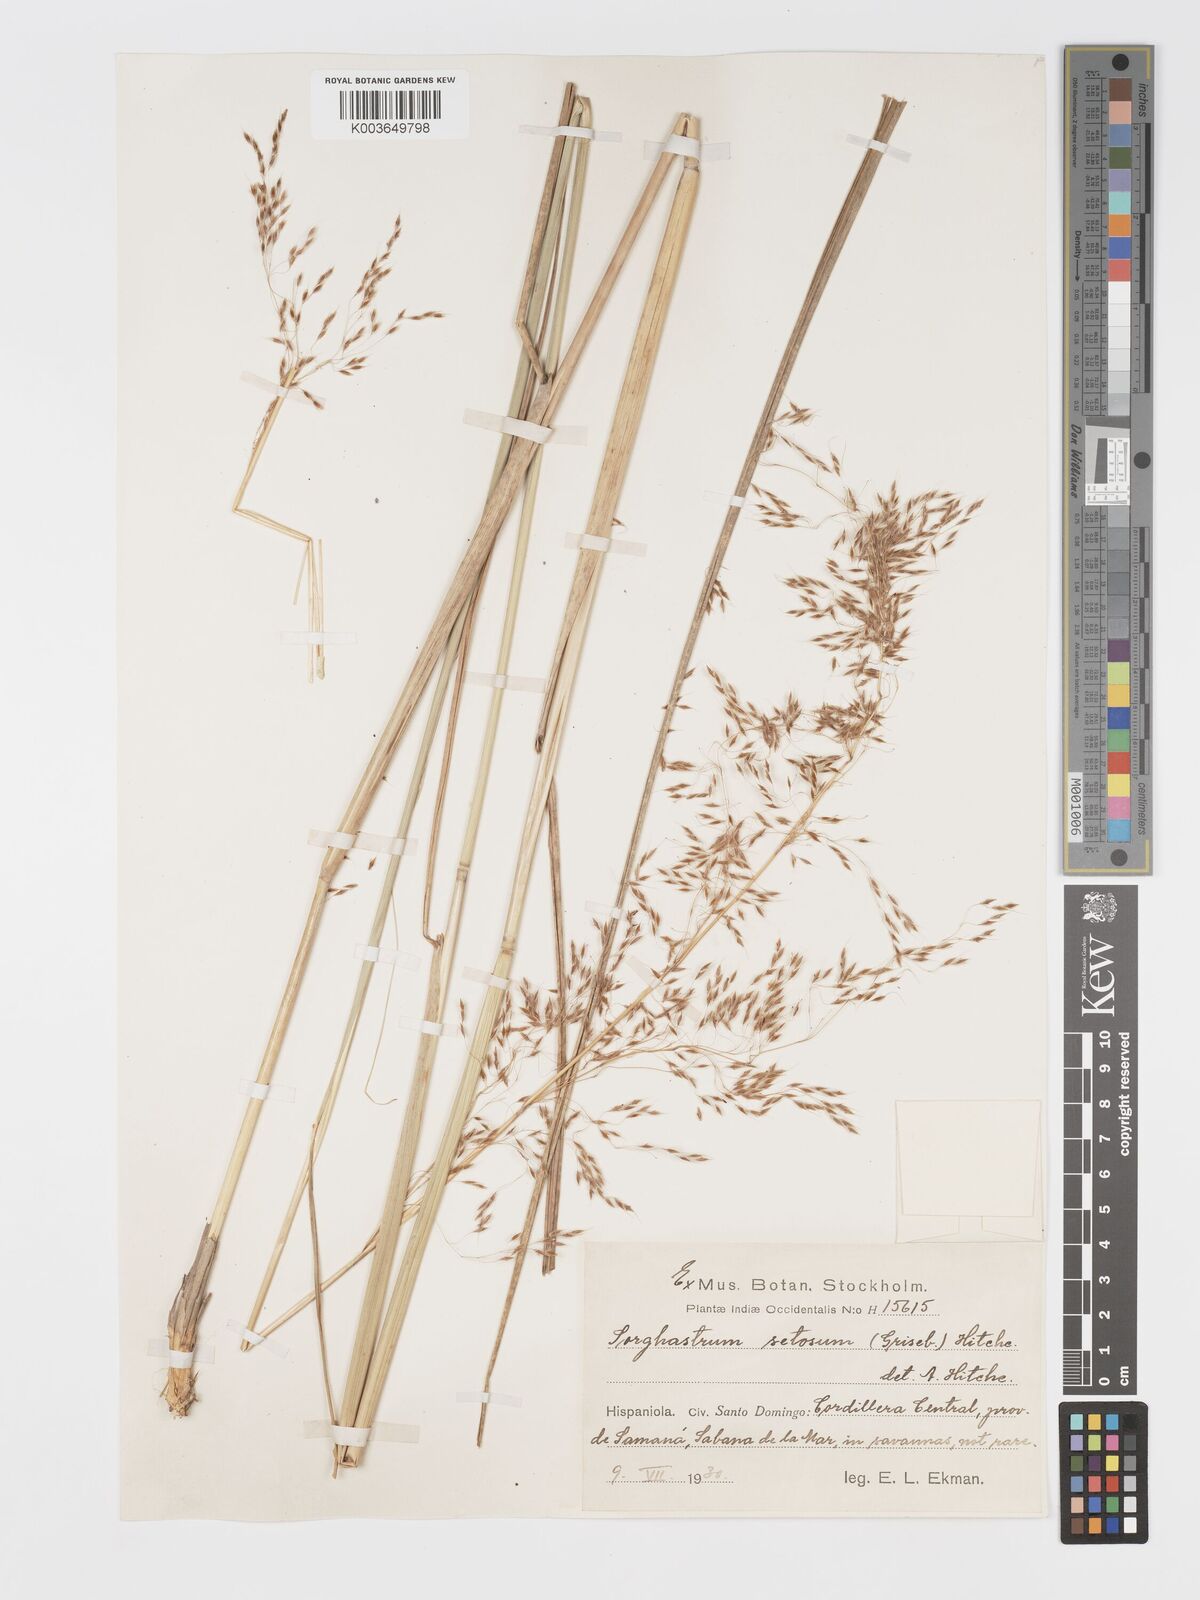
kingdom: Plantae
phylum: Tracheophyta
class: Liliopsida
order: Poales
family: Poaceae
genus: Sorghastrum
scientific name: Sorghastrum setosum
